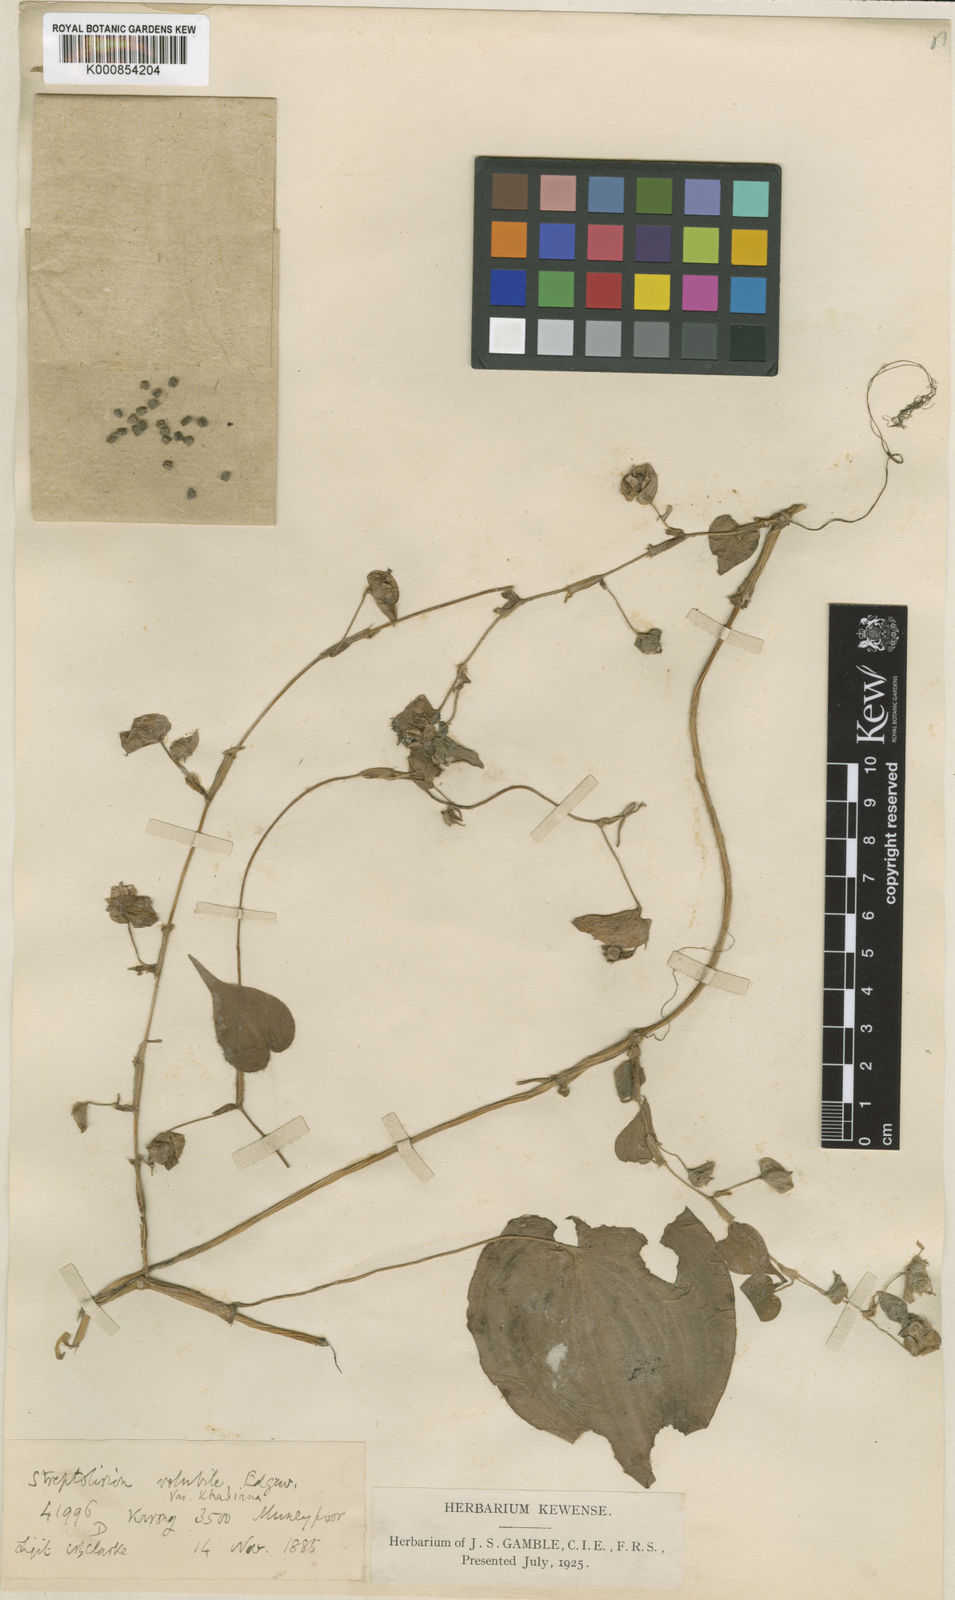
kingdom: Plantae
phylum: Tracheophyta
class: Liliopsida
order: Commelinales
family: Commelinaceae
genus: Streptolirion
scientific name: Streptolirion volubile
